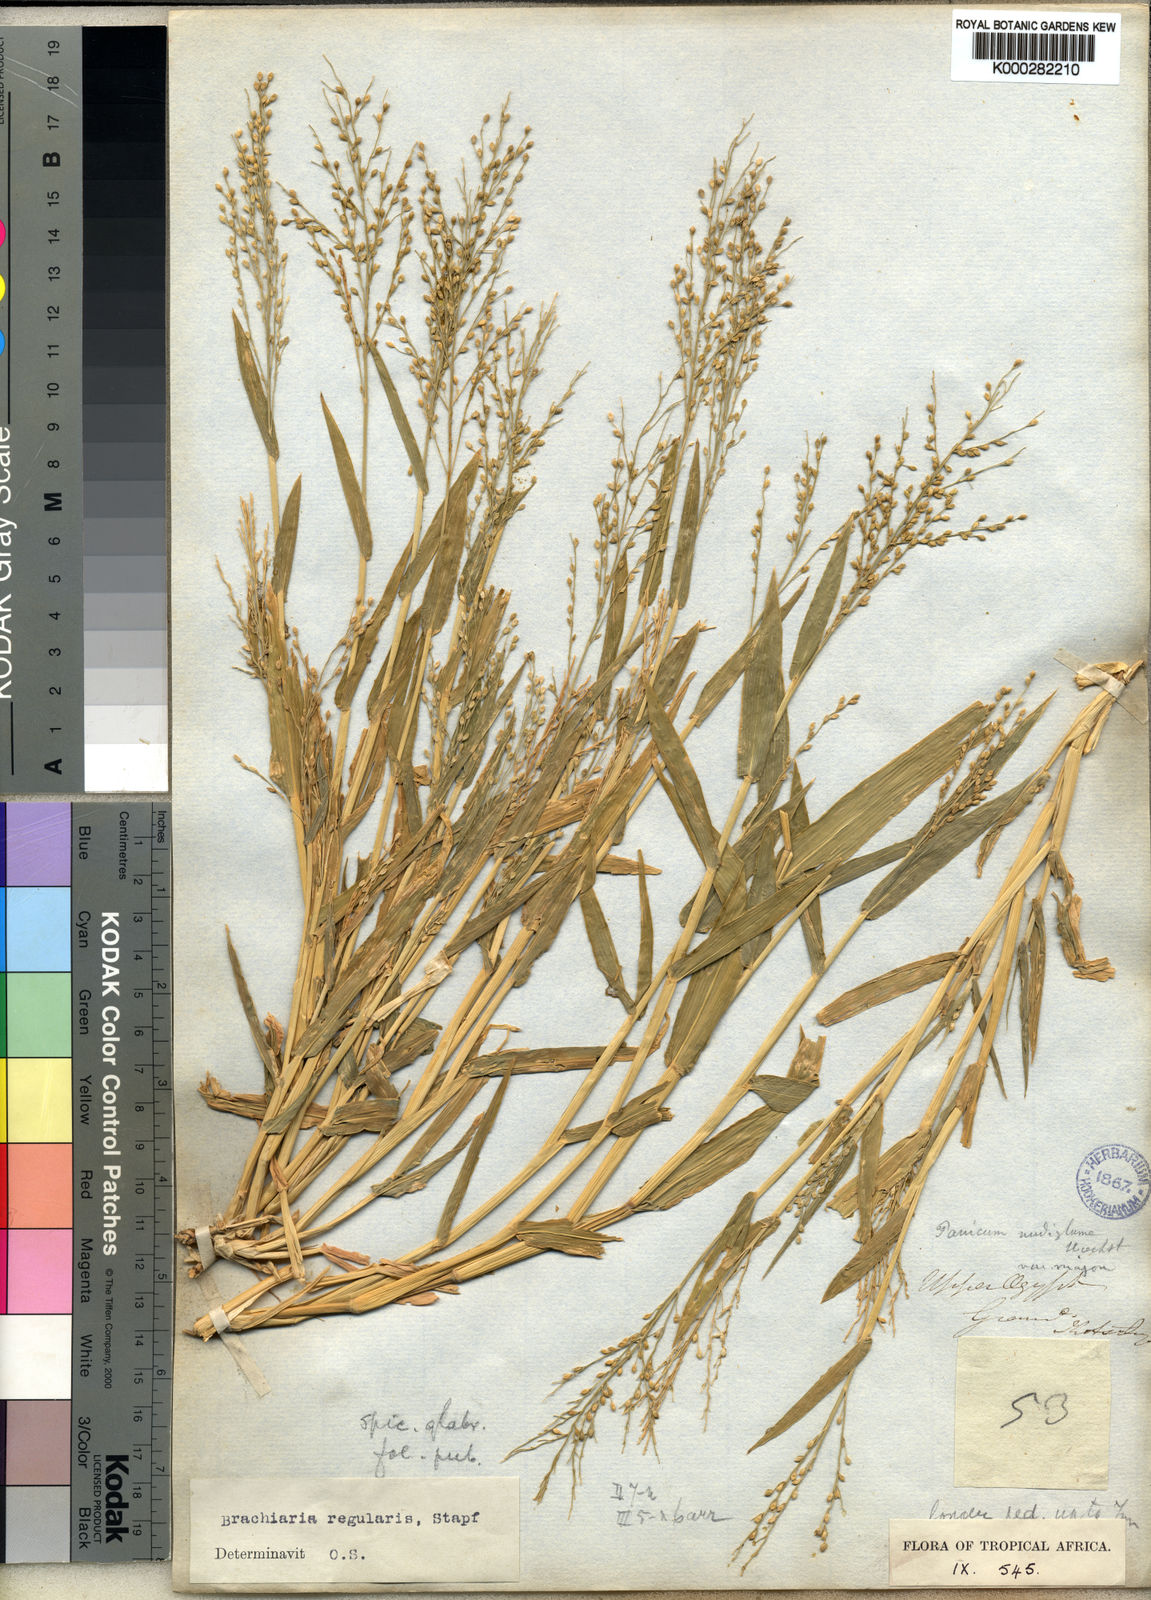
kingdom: Plantae
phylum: Tracheophyta
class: Liliopsida
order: Poales
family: Poaceae
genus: Urochloa
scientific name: Urochloa deflexa
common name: Guinea millet
